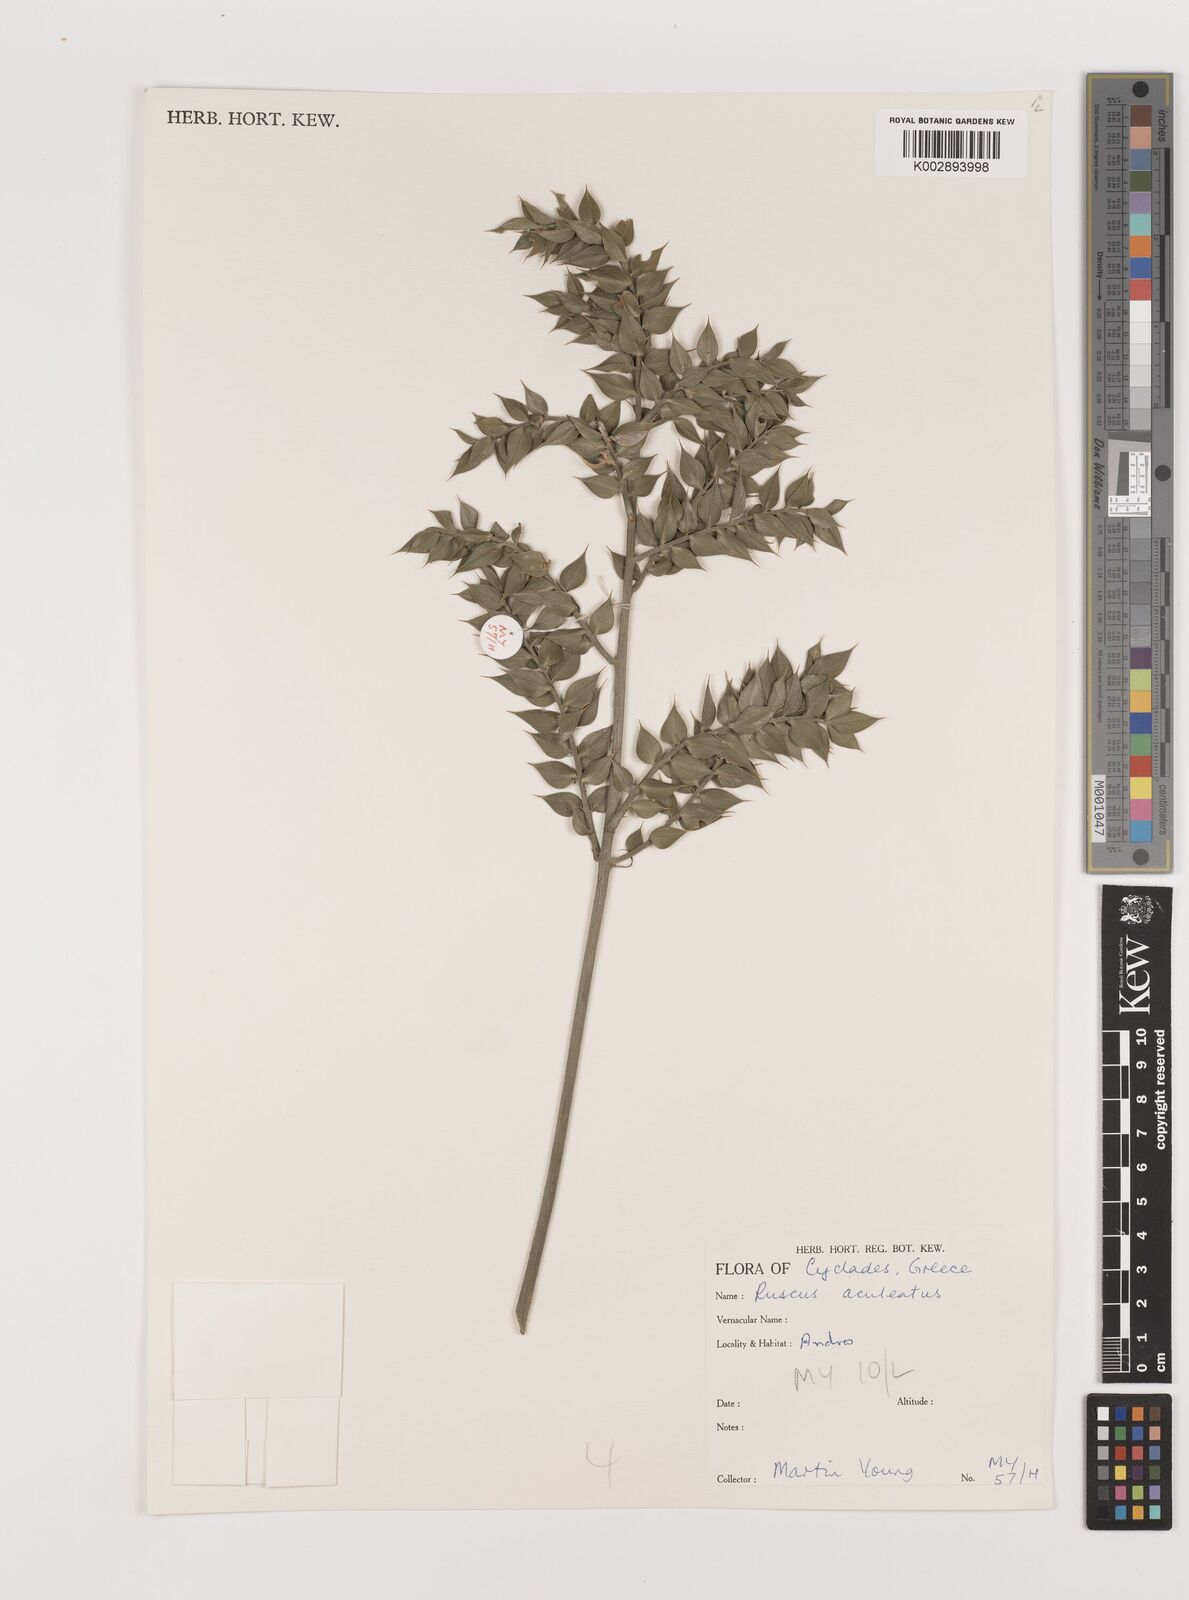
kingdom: Plantae
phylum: Tracheophyta
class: Liliopsida
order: Asparagales
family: Asparagaceae
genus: Ruscus
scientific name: Ruscus aculeatus
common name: Butcher's-broom
